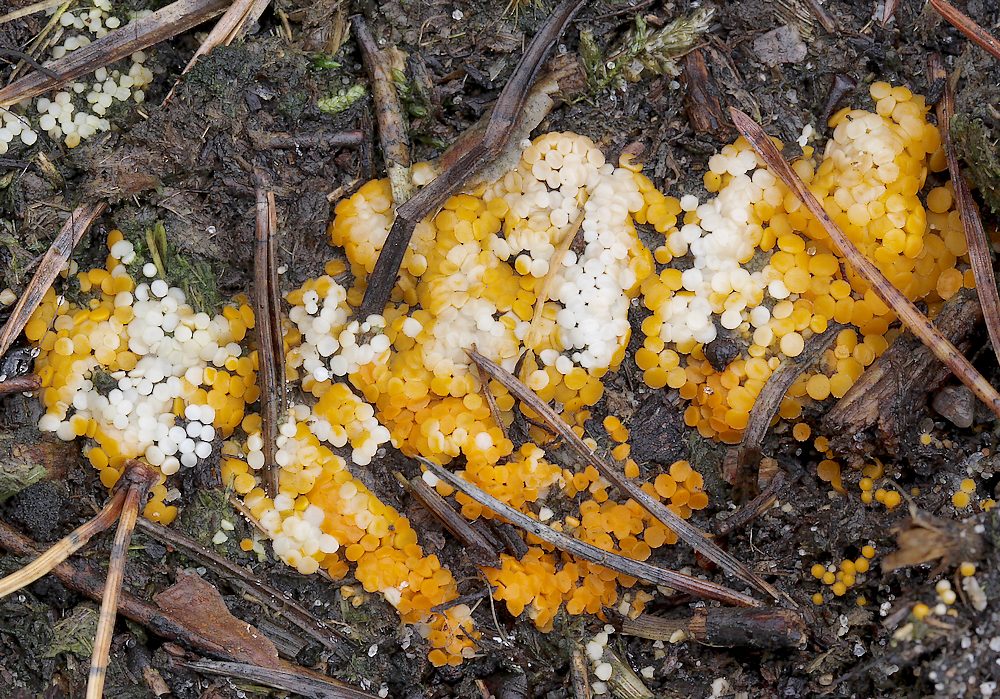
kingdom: Fungi
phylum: Ascomycota
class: Pezizomycetes
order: Pezizales
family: Pyronemataceae
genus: Byssonectria
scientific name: Byssonectria terrestris
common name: hjortebæger
